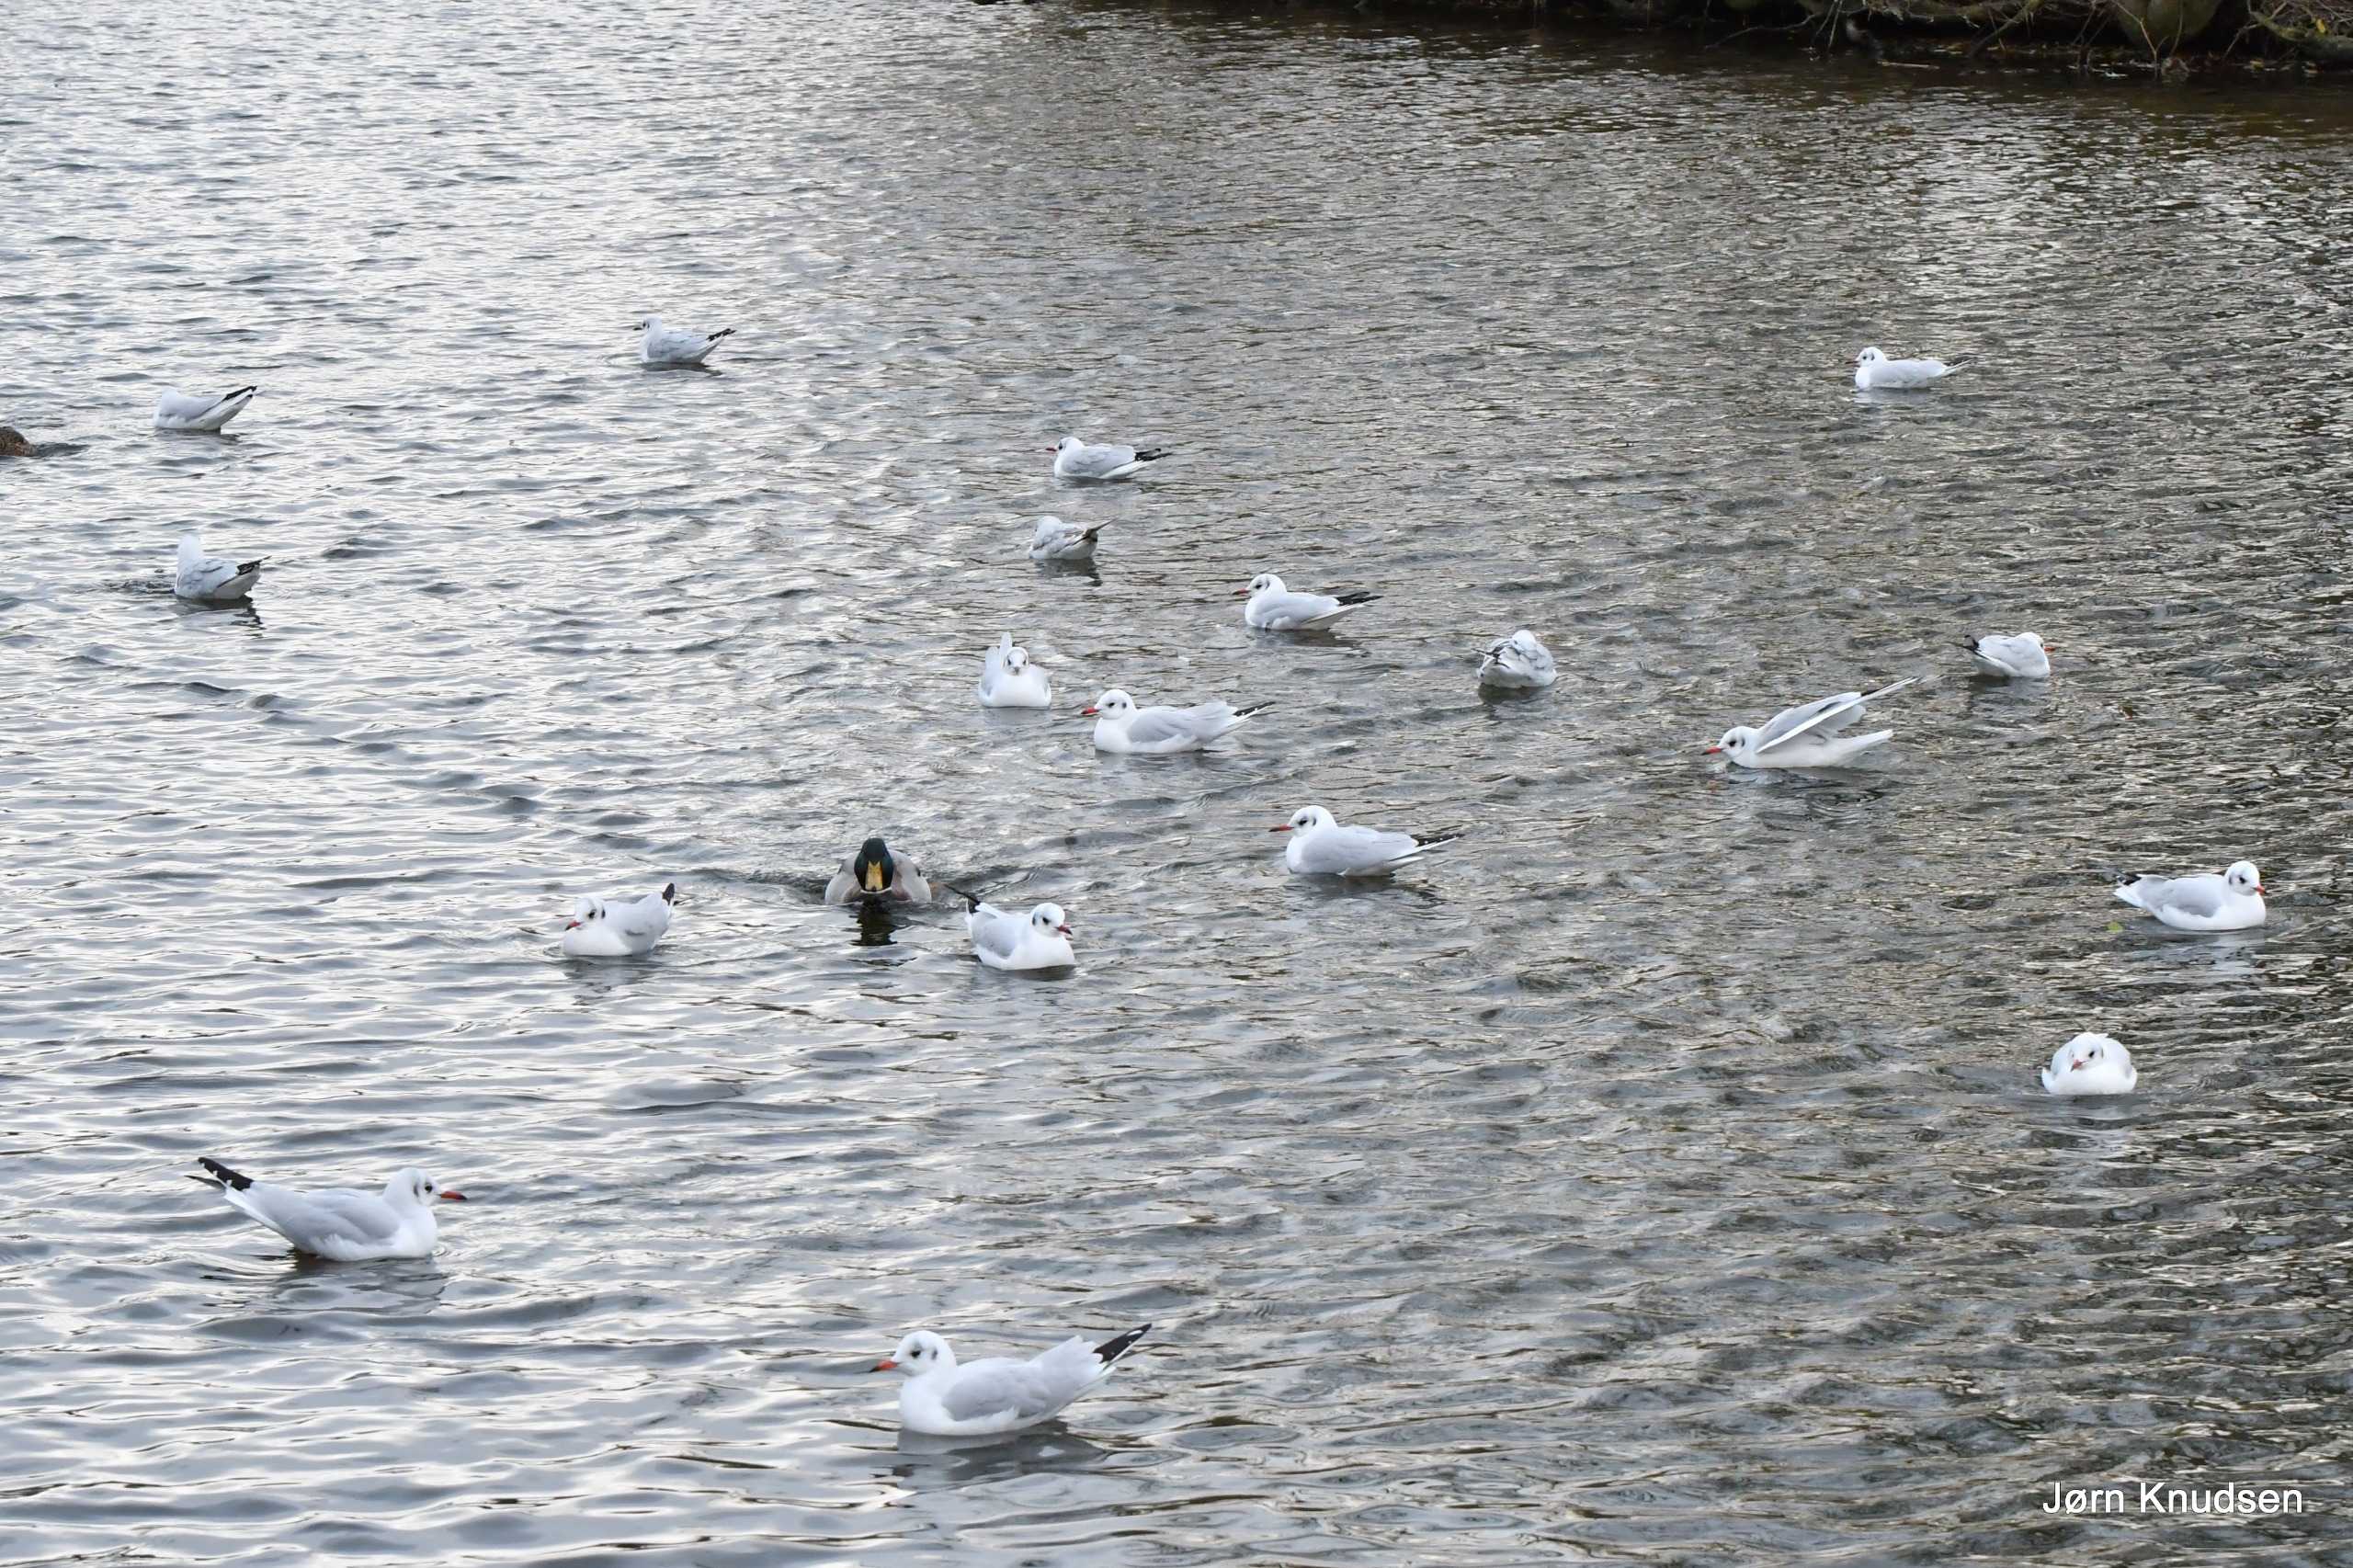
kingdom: Animalia
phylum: Chordata
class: Aves
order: Charadriiformes
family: Laridae
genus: Chroicocephalus
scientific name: Chroicocephalus ridibundus
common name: Hættemåge
